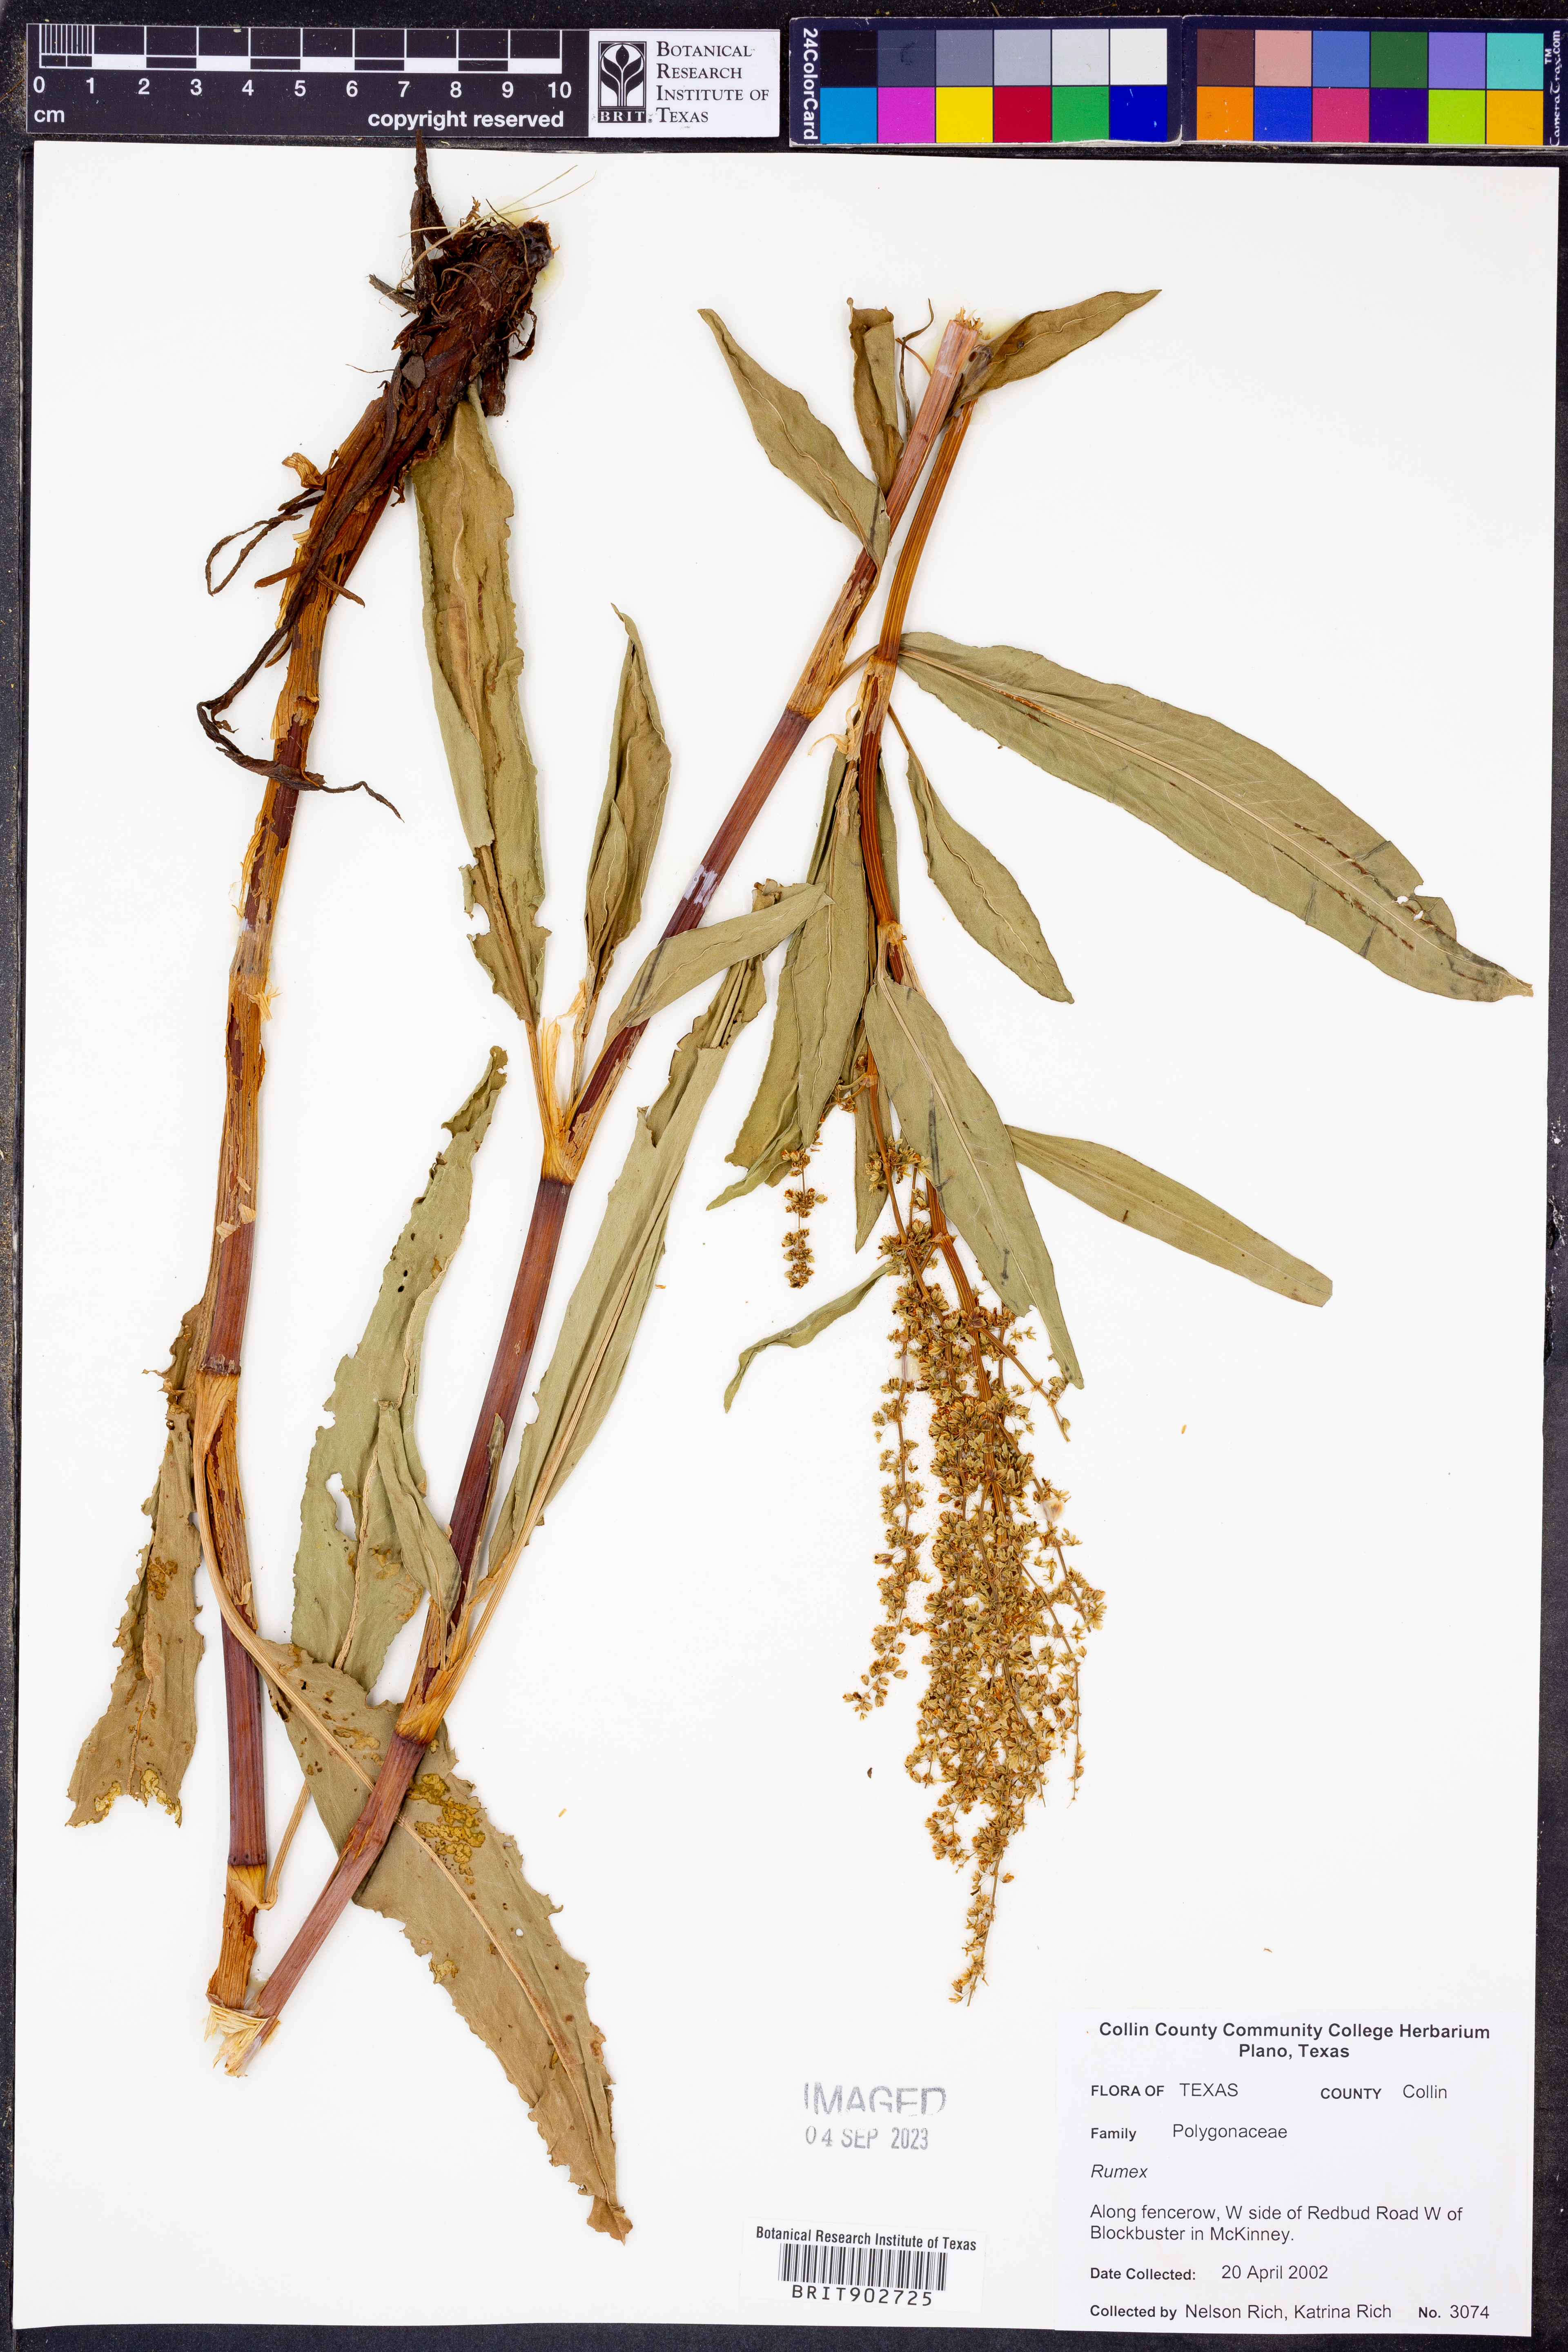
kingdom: Plantae
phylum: Tracheophyta
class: Magnoliopsida
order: Caryophyllales
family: Polygonaceae
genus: Rumex
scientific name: Rumex
